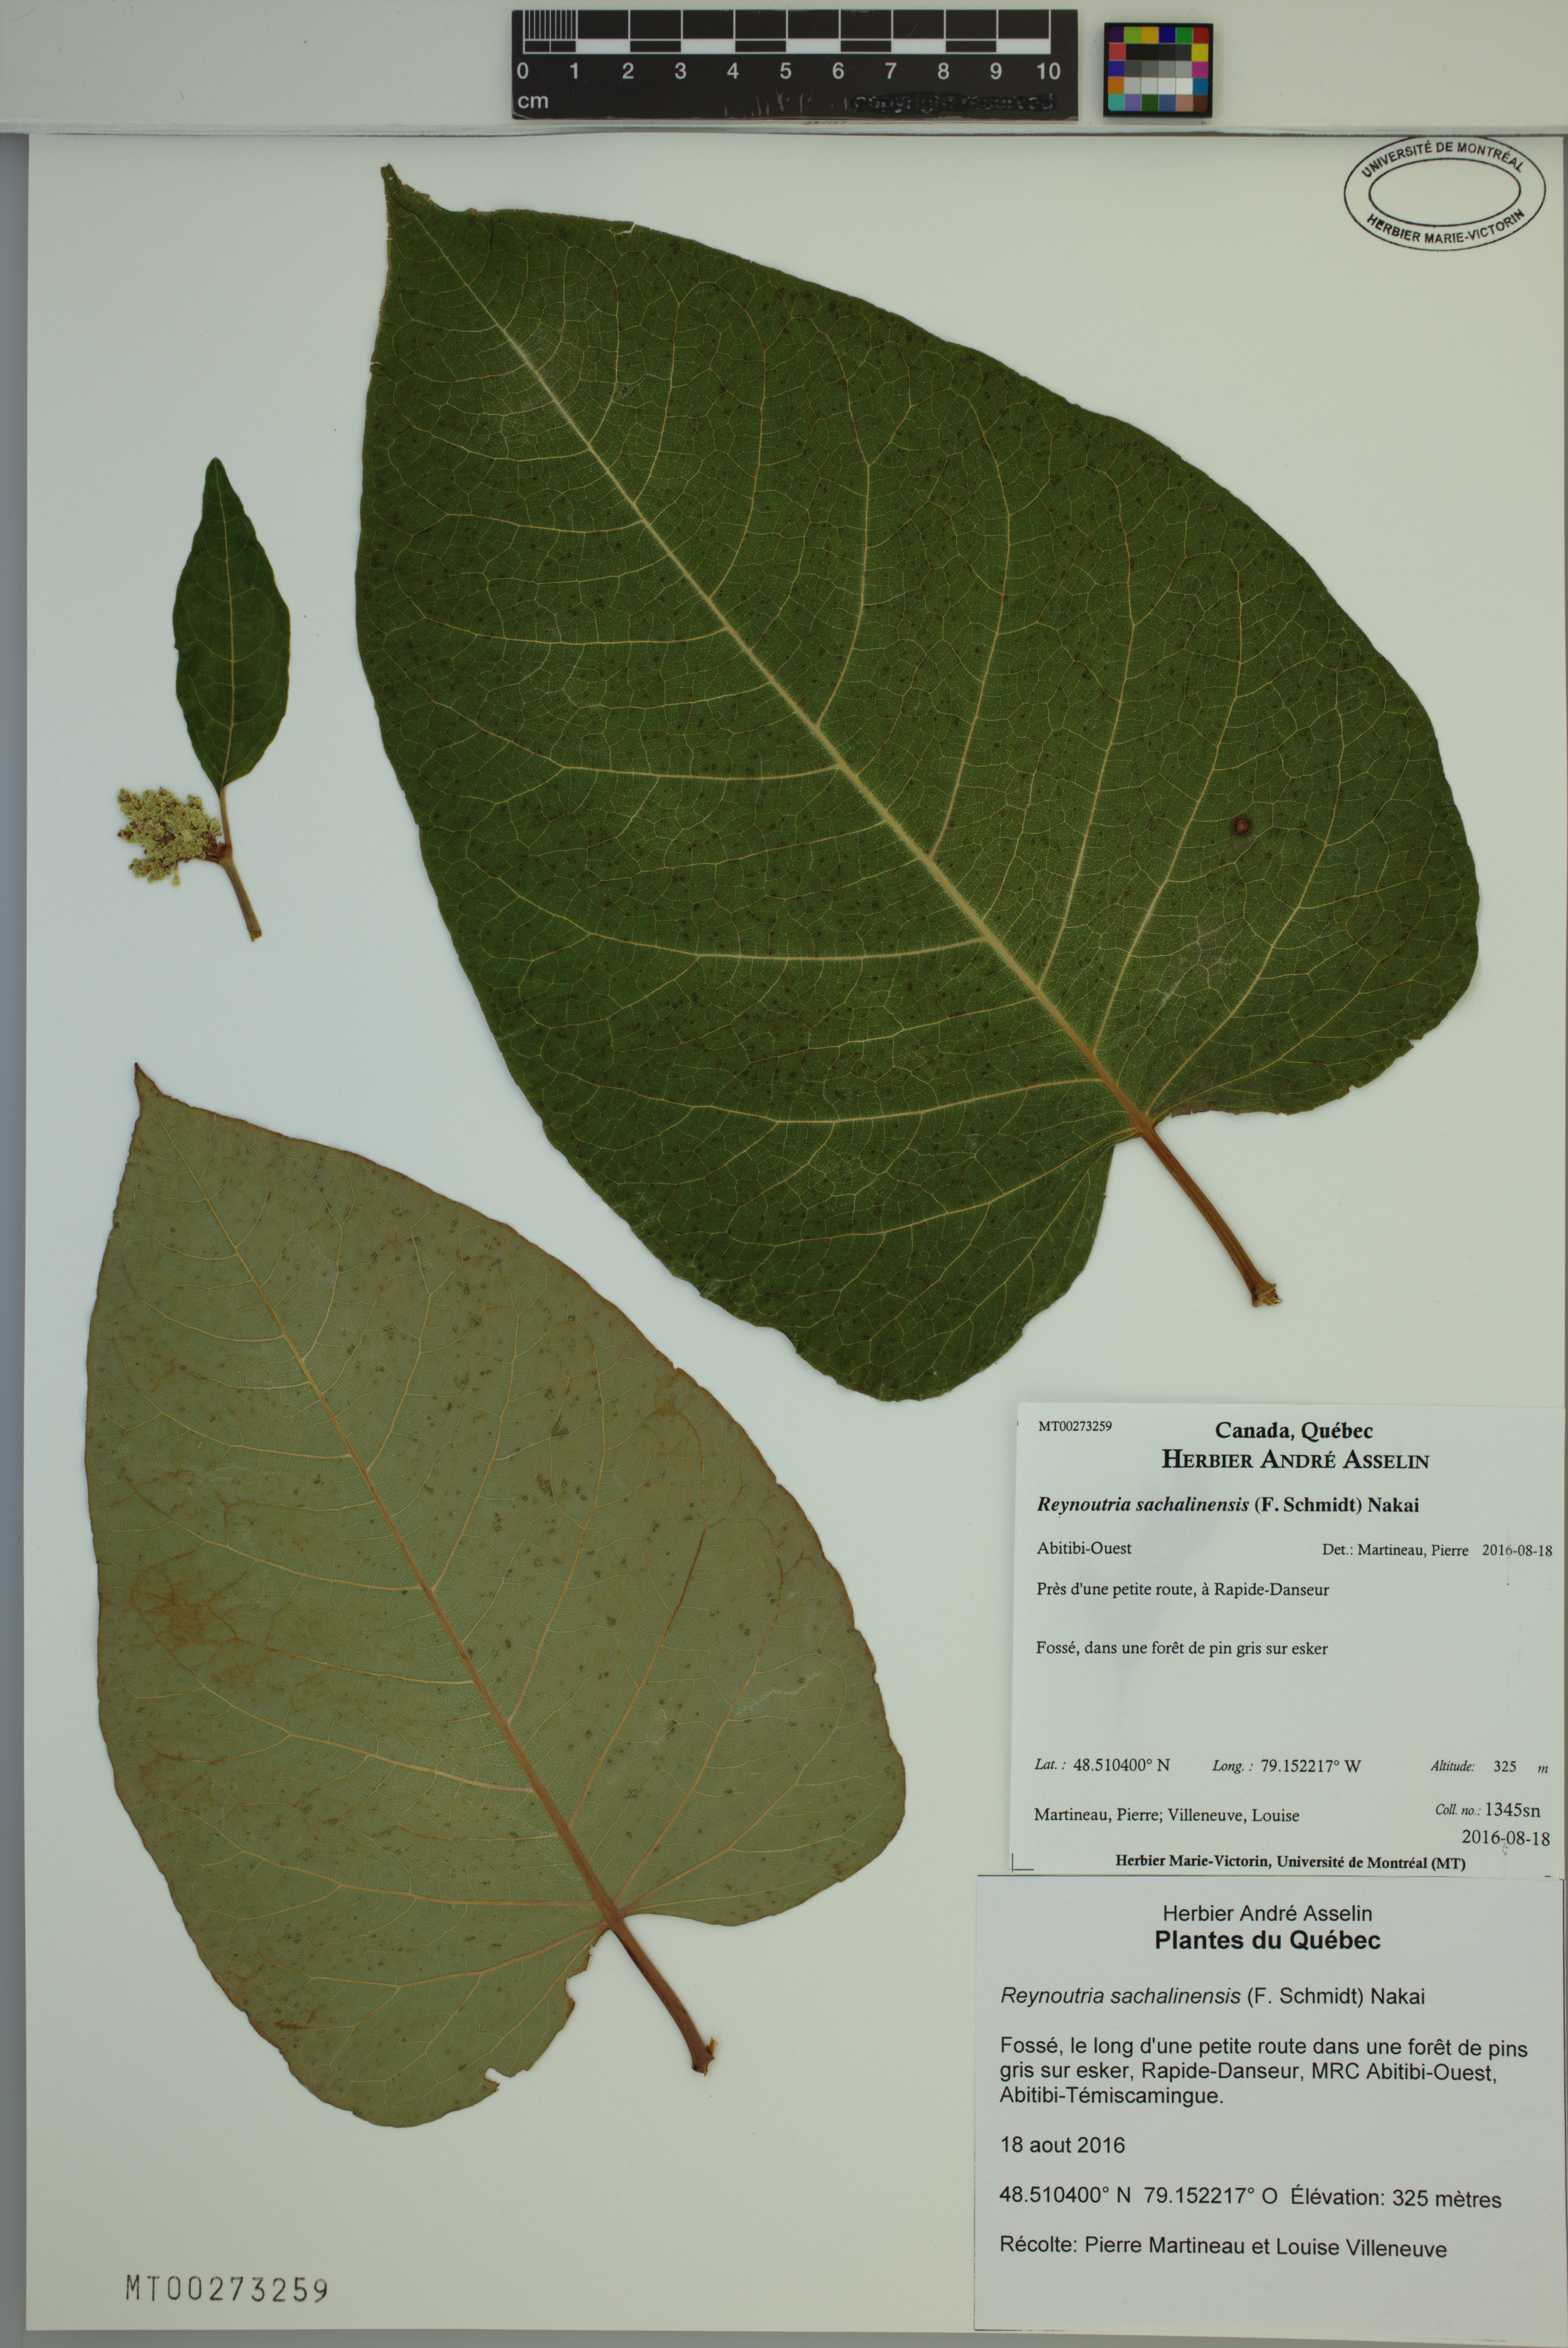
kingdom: Plantae
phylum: Tracheophyta
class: Magnoliopsida
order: Caryophyllales
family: Polygonaceae
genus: Reynoutria
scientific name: Reynoutria sachalinensis
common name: Giant knotweed
